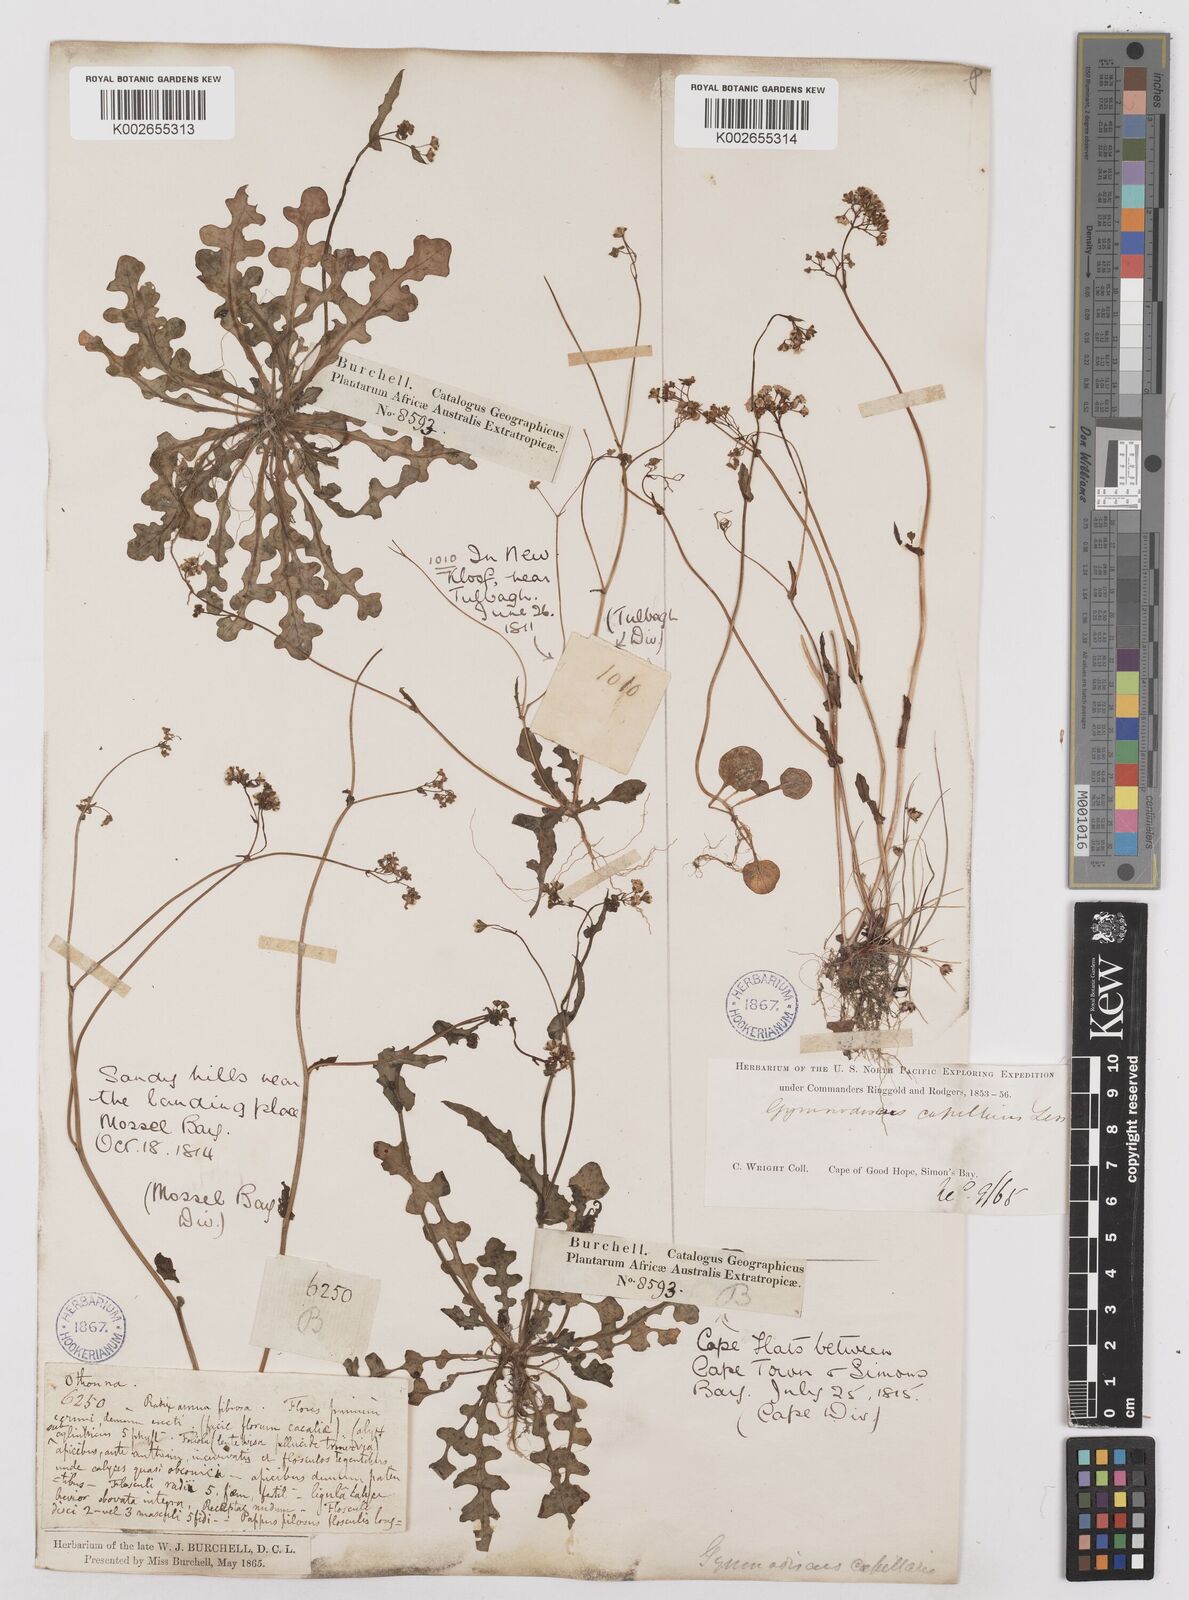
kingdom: Plantae
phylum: Tracheophyta
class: Magnoliopsida
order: Asterales
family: Asteraceae
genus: Gymnodiscus
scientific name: Gymnodiscus capillaris
